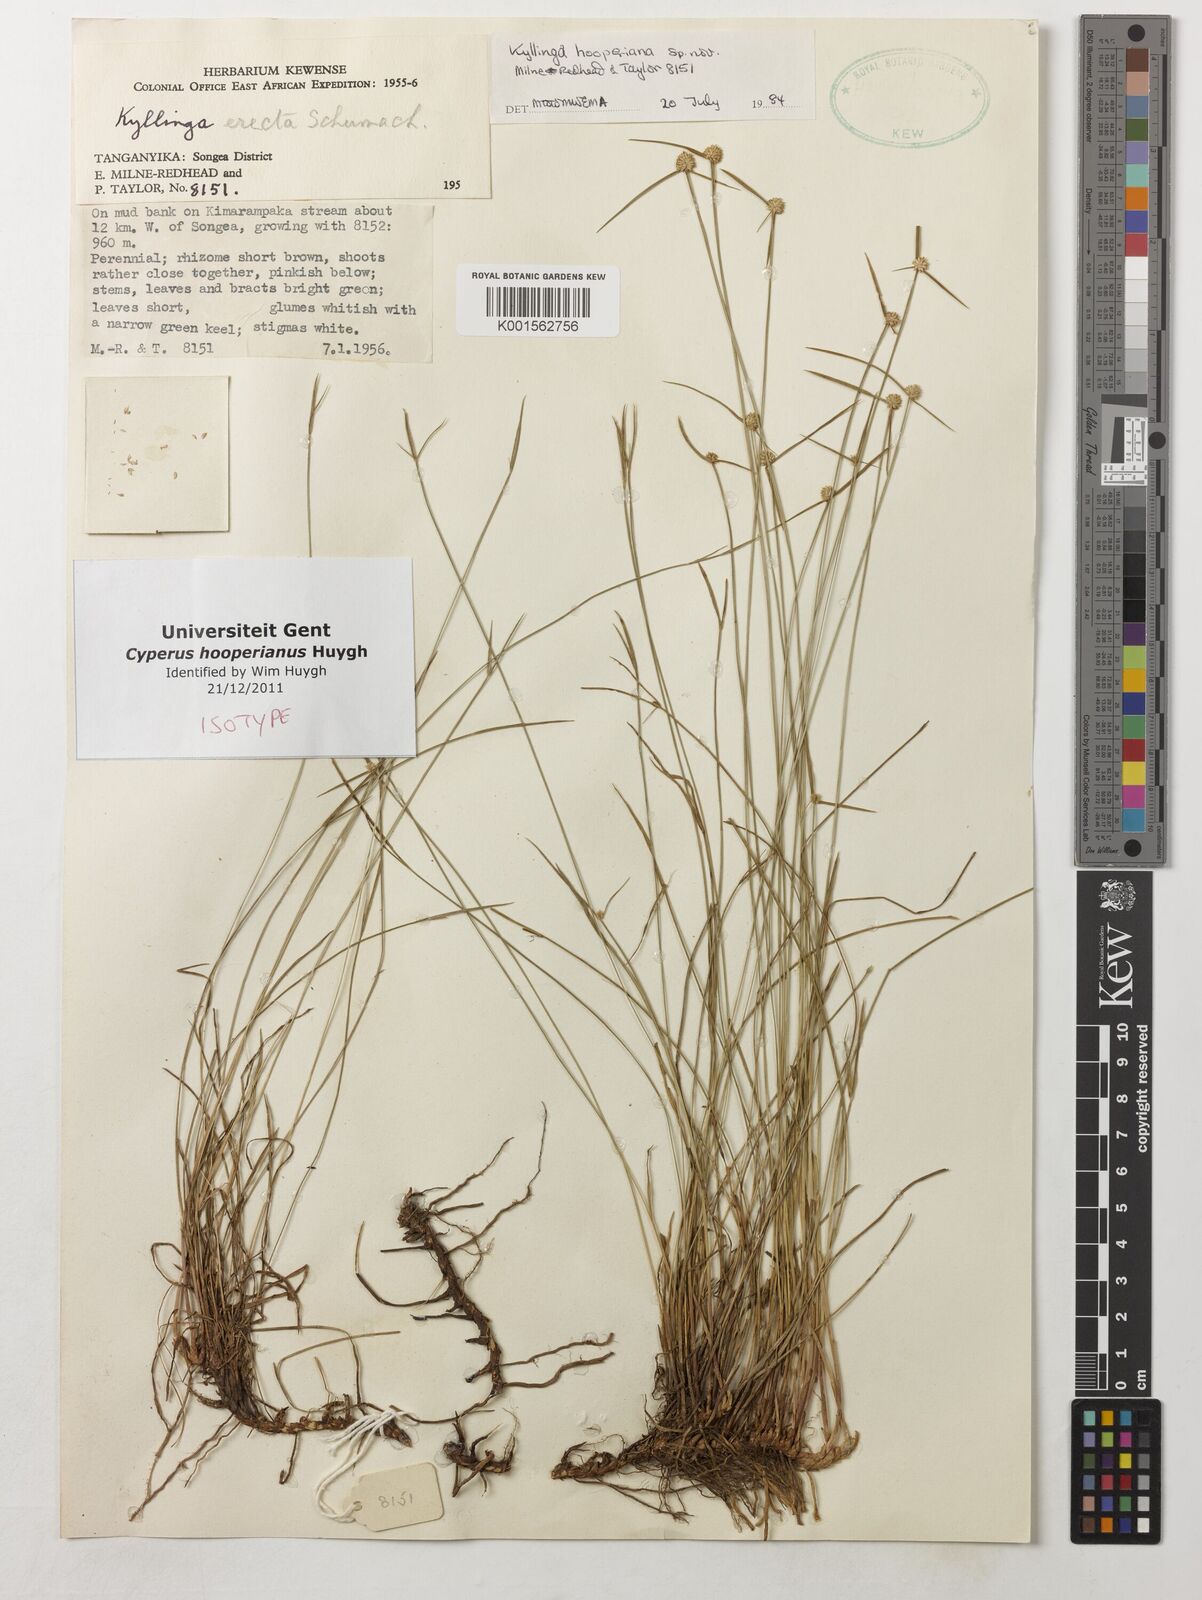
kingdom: Plantae
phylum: Tracheophyta
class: Liliopsida
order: Poales
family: Cyperaceae
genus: Cyperus
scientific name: Cyperus
